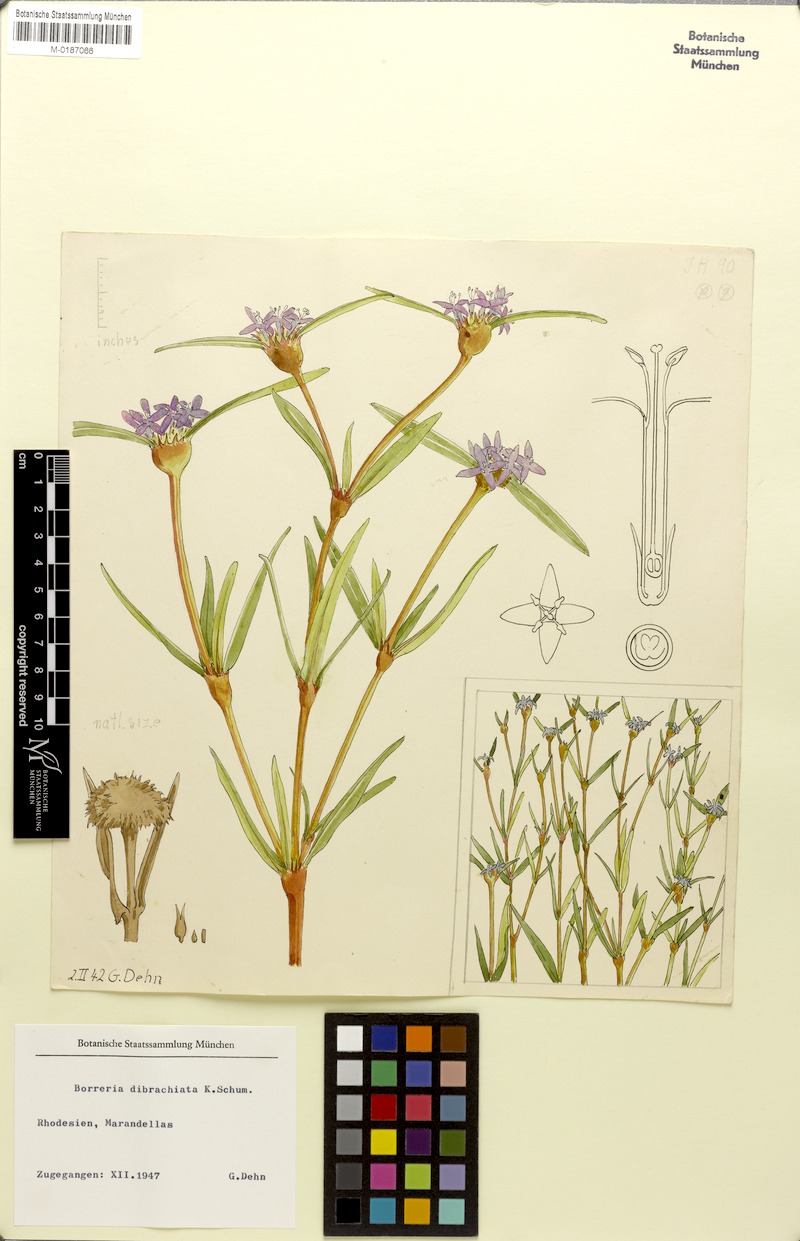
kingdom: Plantae
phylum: Tracheophyta
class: Magnoliopsida
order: Gentianales
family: Rubiaceae
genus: Spermacoce
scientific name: Spermacoce dibrachiata
